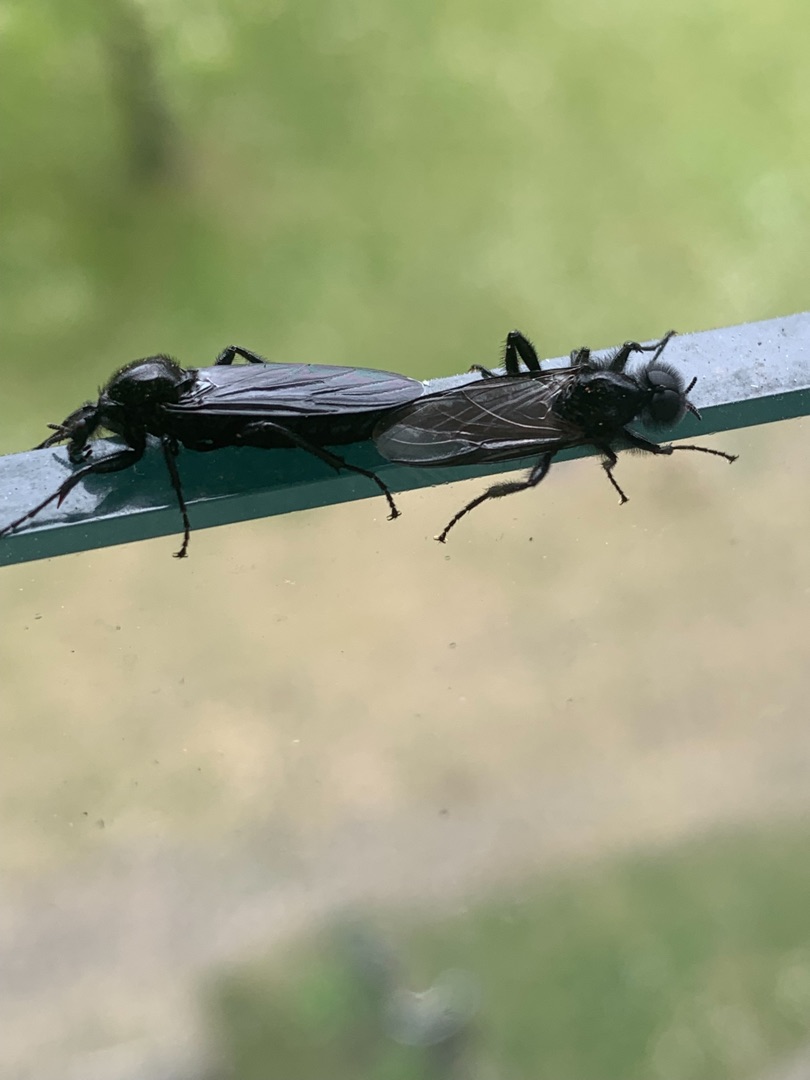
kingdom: Animalia
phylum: Arthropoda
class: Insecta
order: Diptera
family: Bibionidae
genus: Bibio
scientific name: Bibio marci
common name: Skovhårmyg
